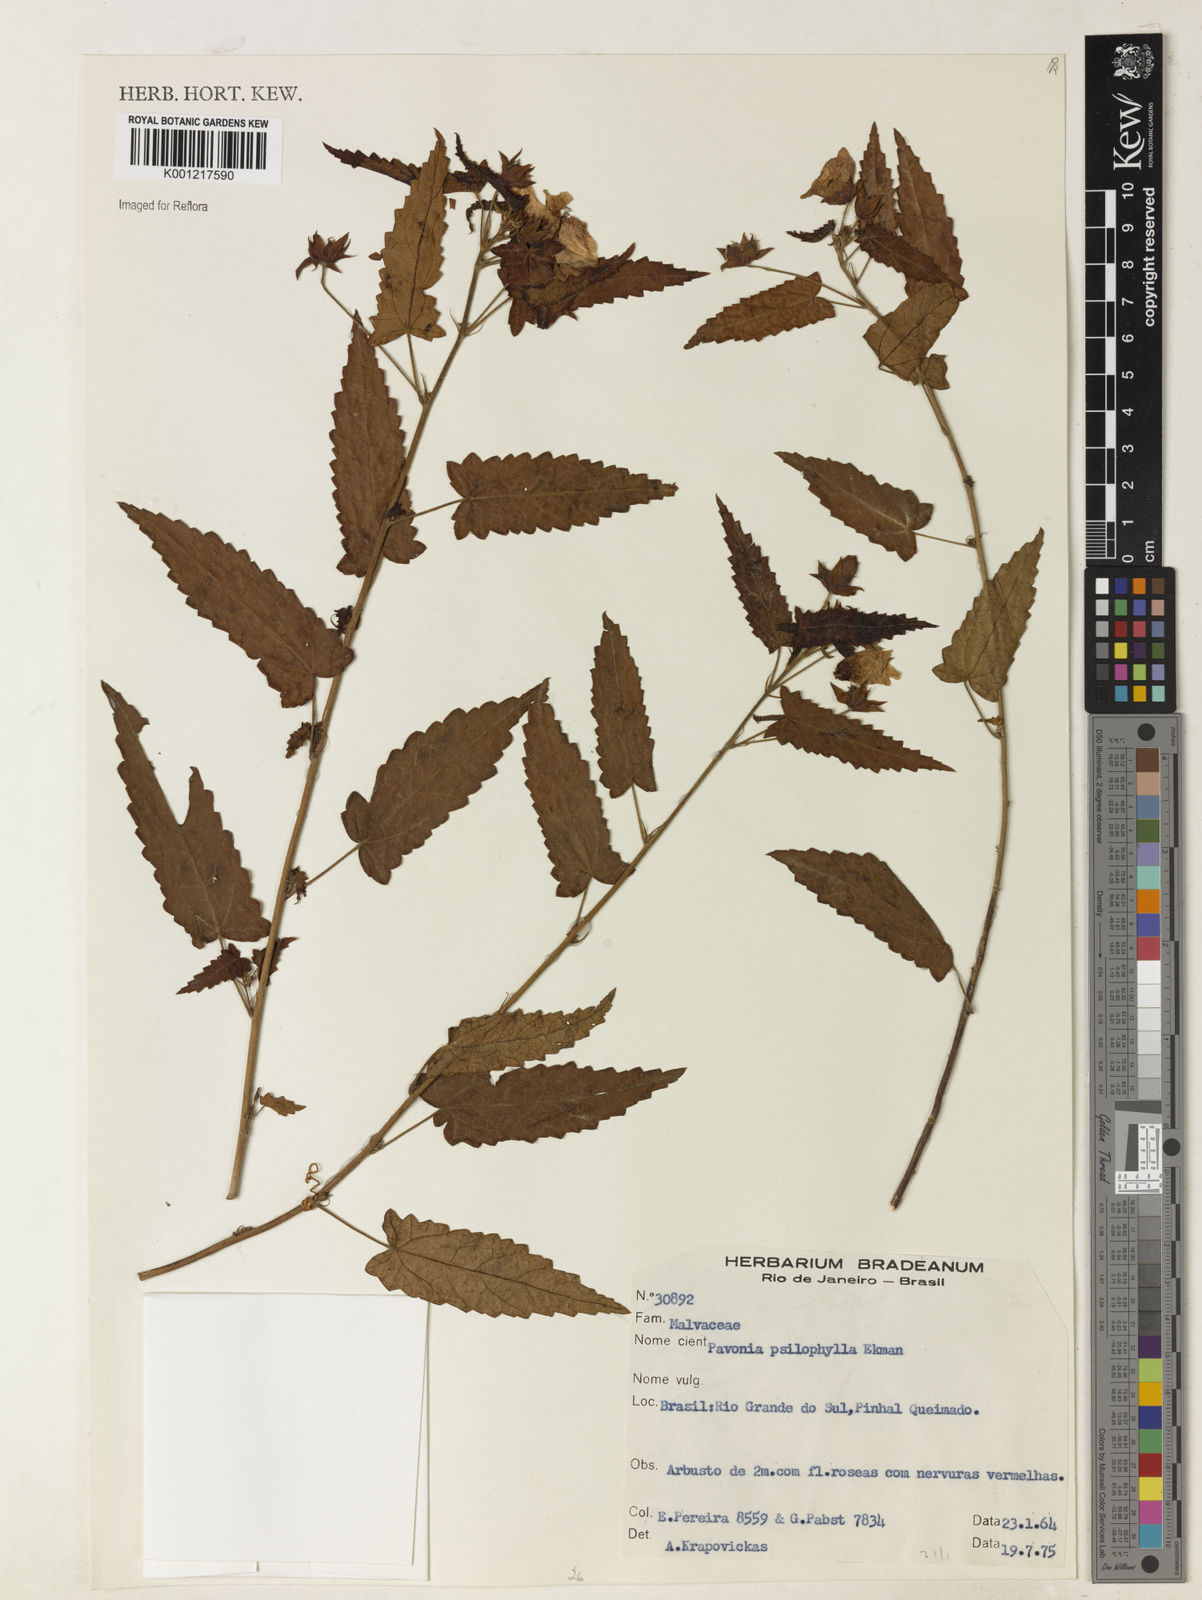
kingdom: Plantae
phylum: Tracheophyta
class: Magnoliopsida
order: Malvales
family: Malvaceae
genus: Pavonia
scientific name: Pavonia prionophylla
